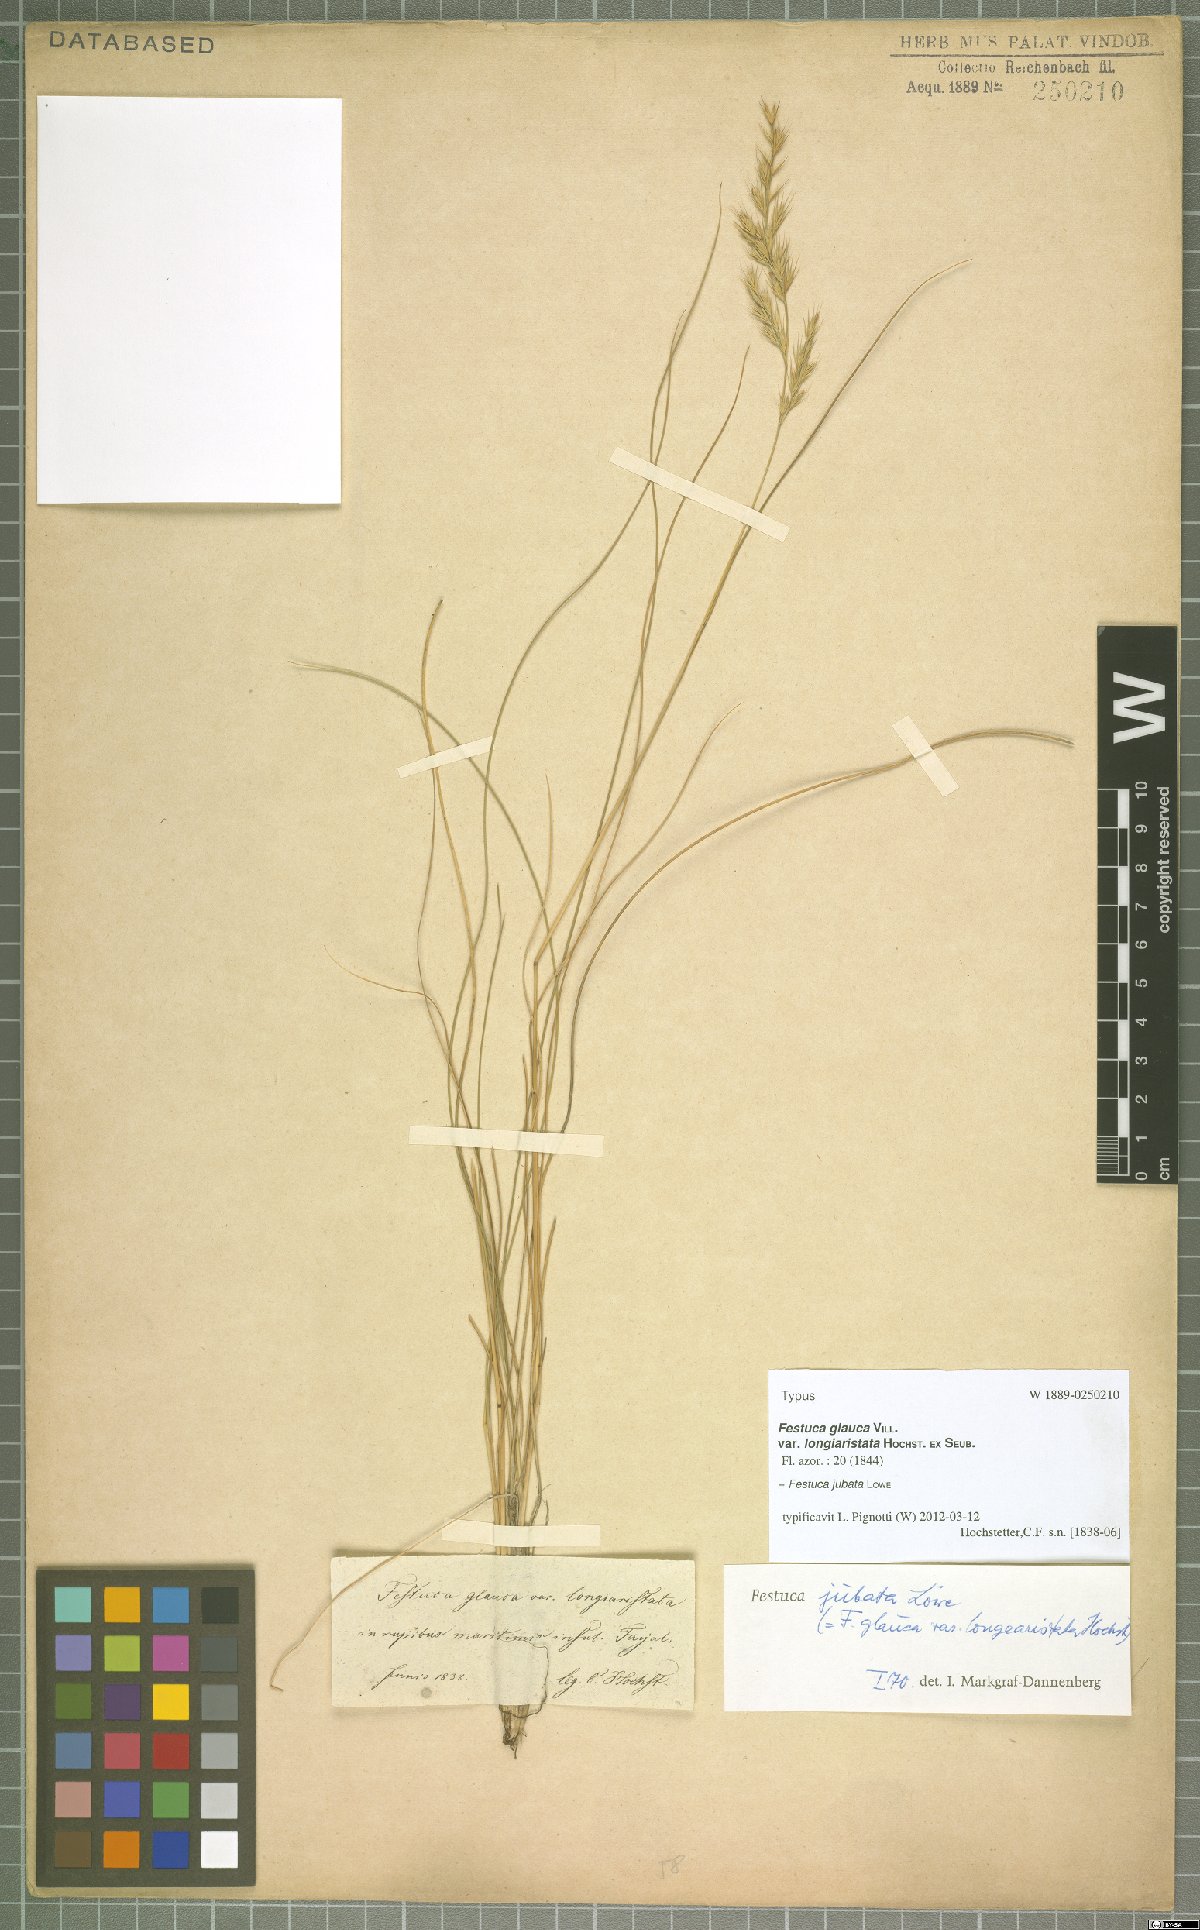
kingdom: Plantae
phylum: Tracheophyta
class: Liliopsida
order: Poales
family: Poaceae
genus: Festuca
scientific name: Festuca jubata
